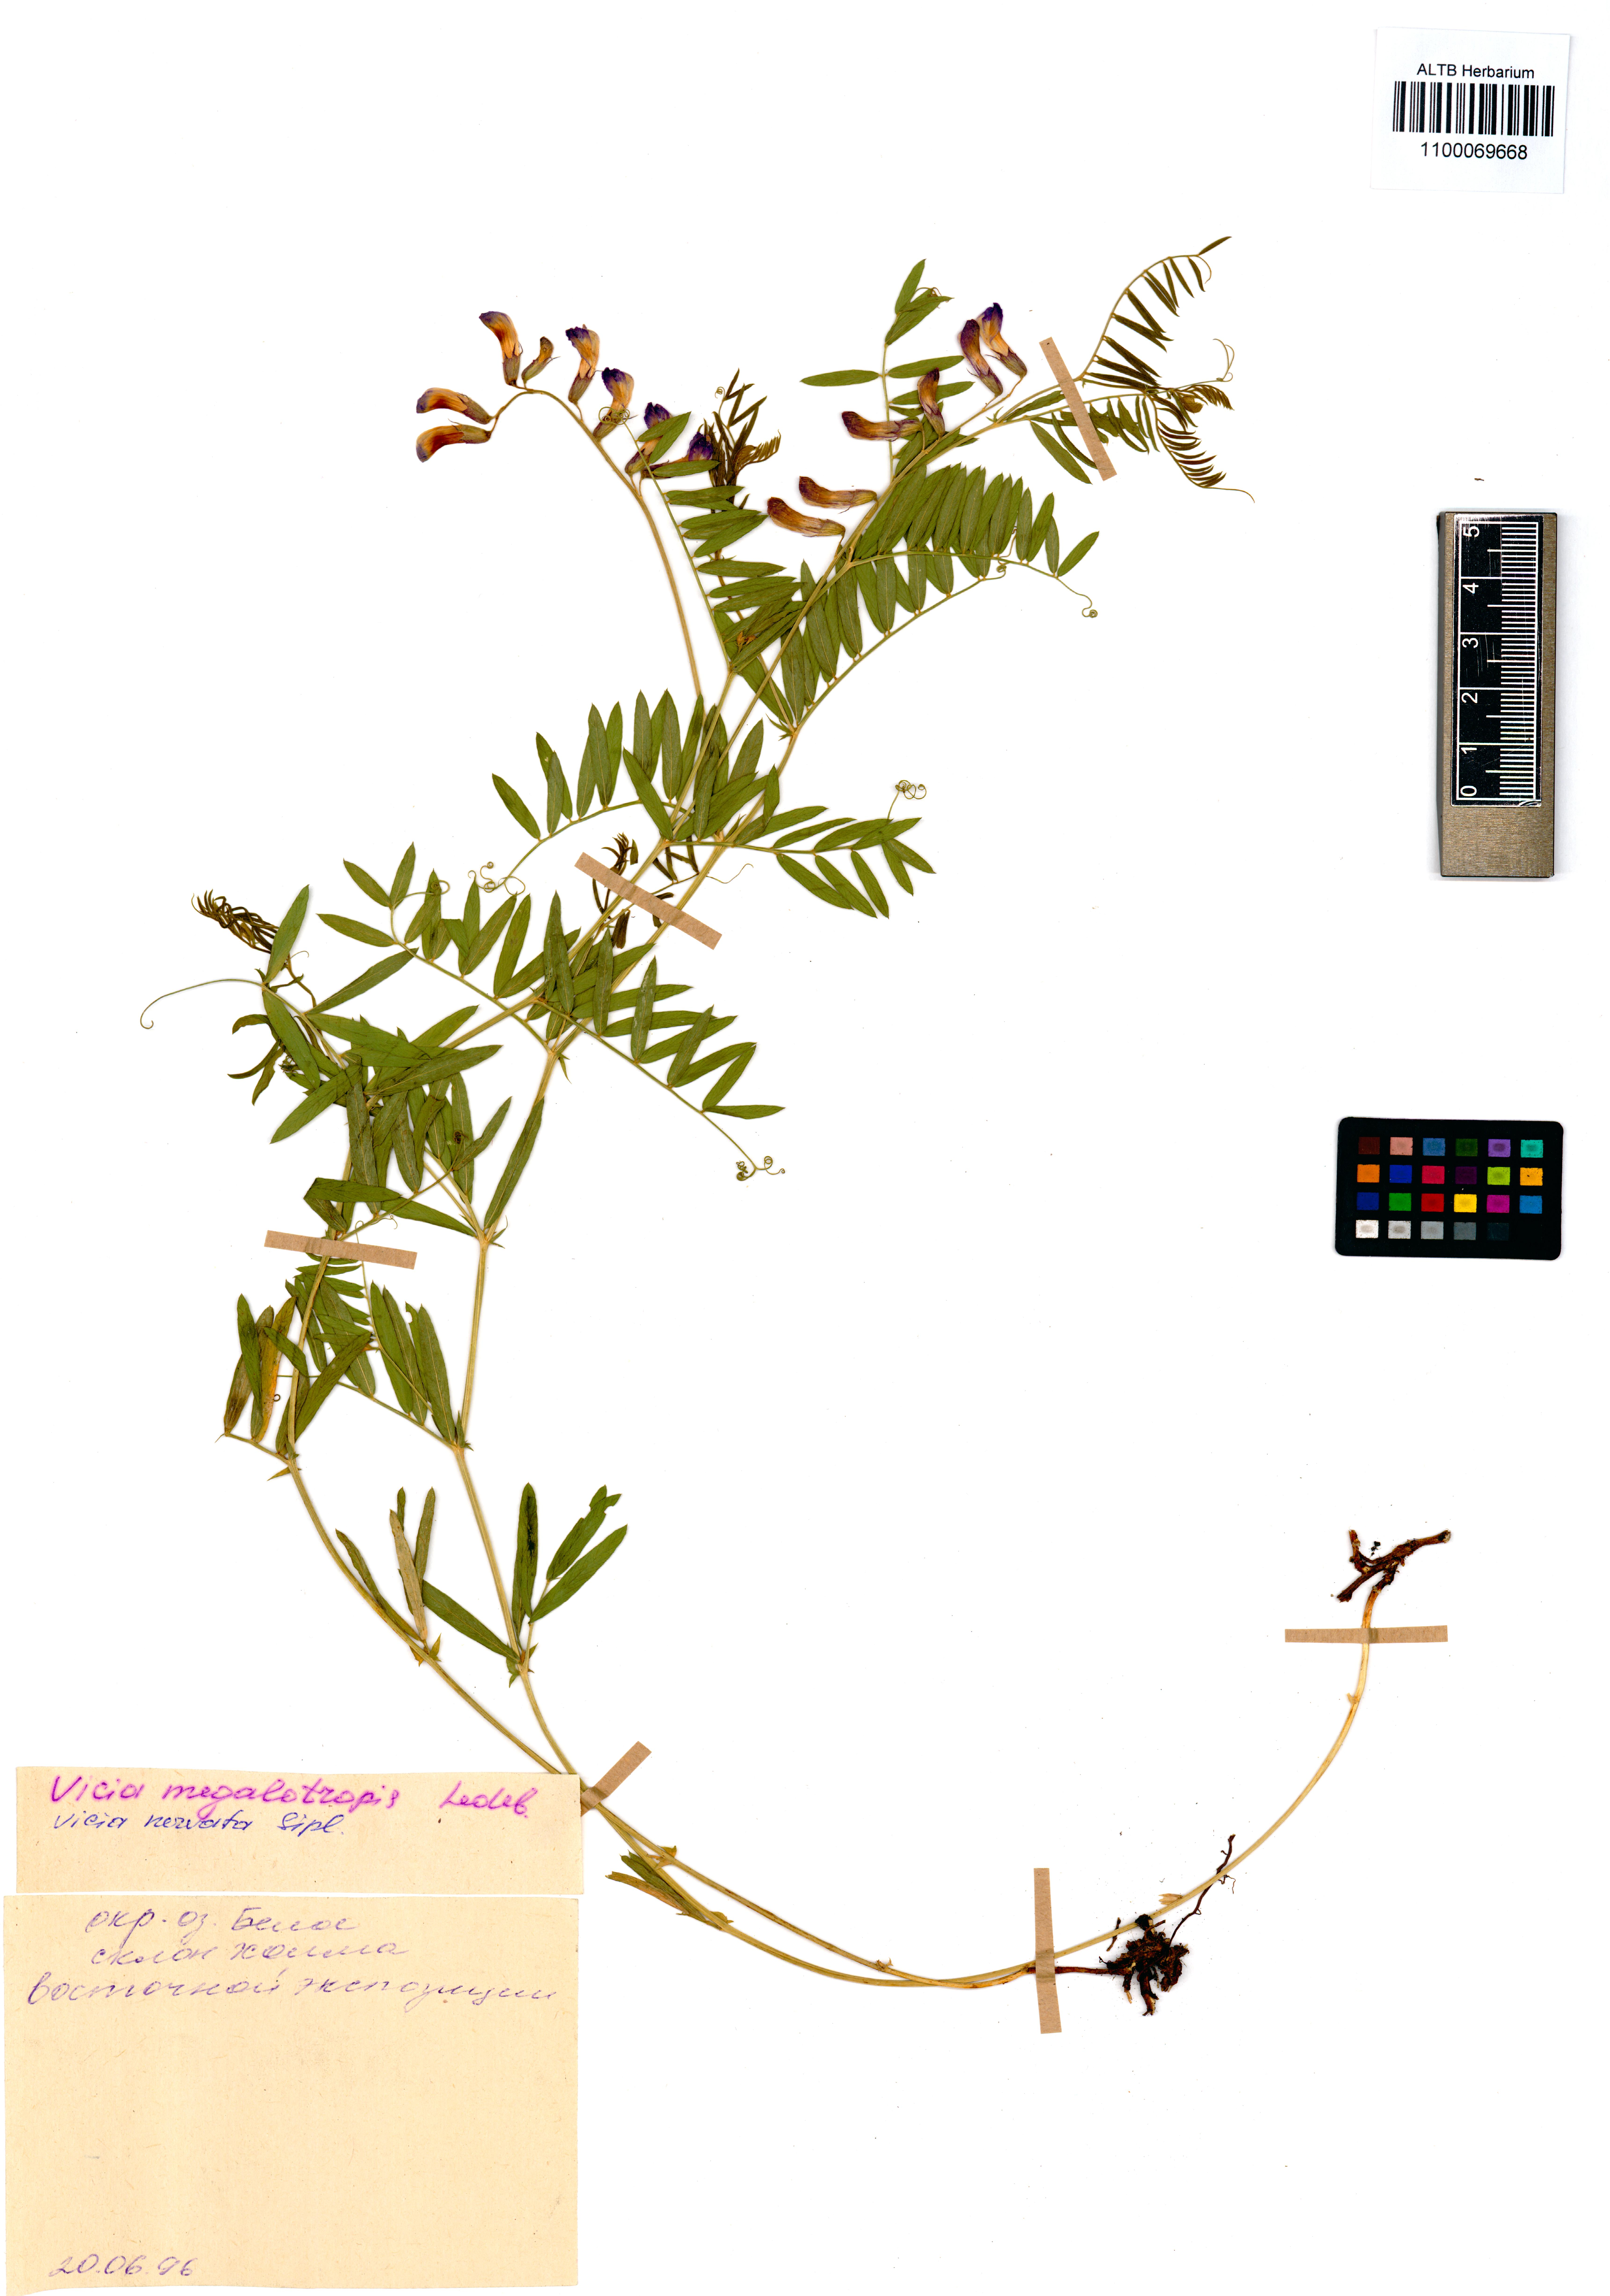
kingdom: Plantae
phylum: Tracheophyta
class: Magnoliopsida
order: Fabales
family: Fabaceae
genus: Vicia
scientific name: Vicia multicaulis
